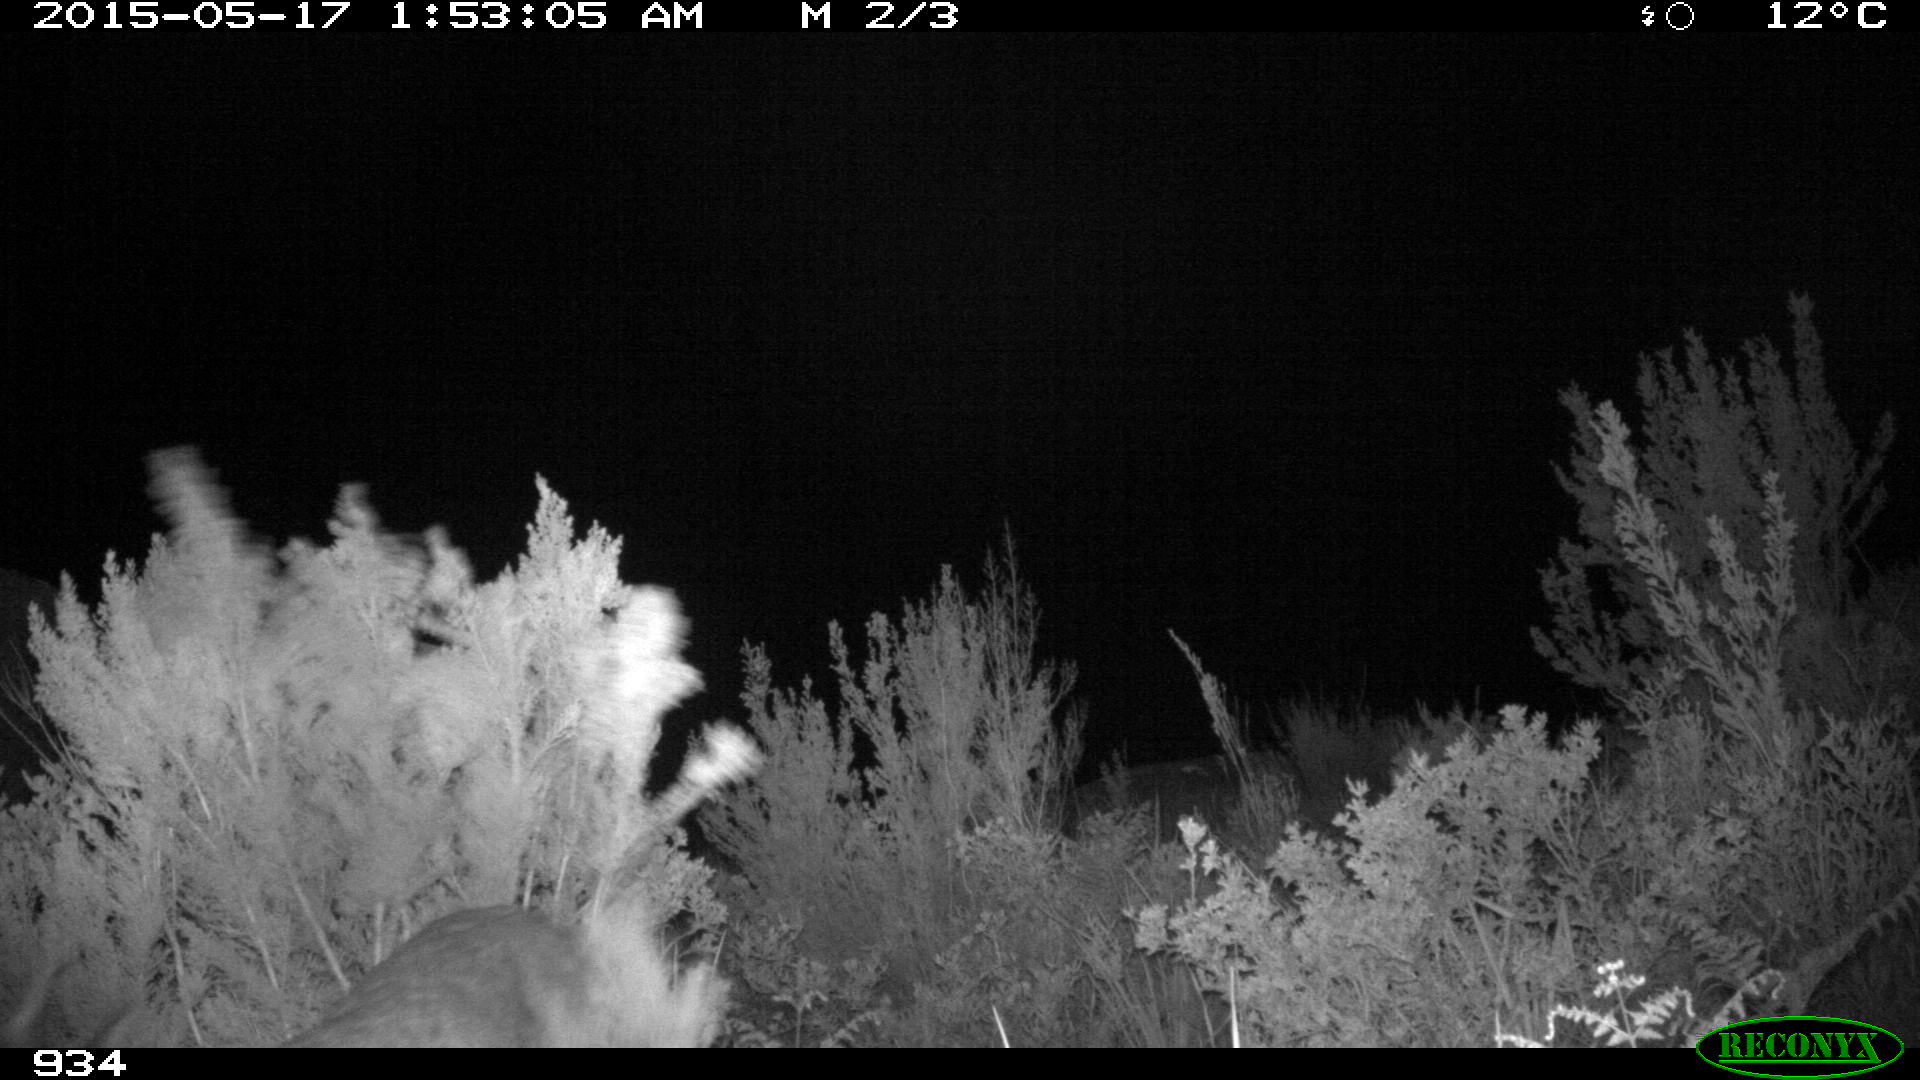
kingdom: Animalia
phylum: Chordata
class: Mammalia
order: Artiodactyla
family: Cervidae
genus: Capreolus
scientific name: Capreolus capreolus
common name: Western roe deer
